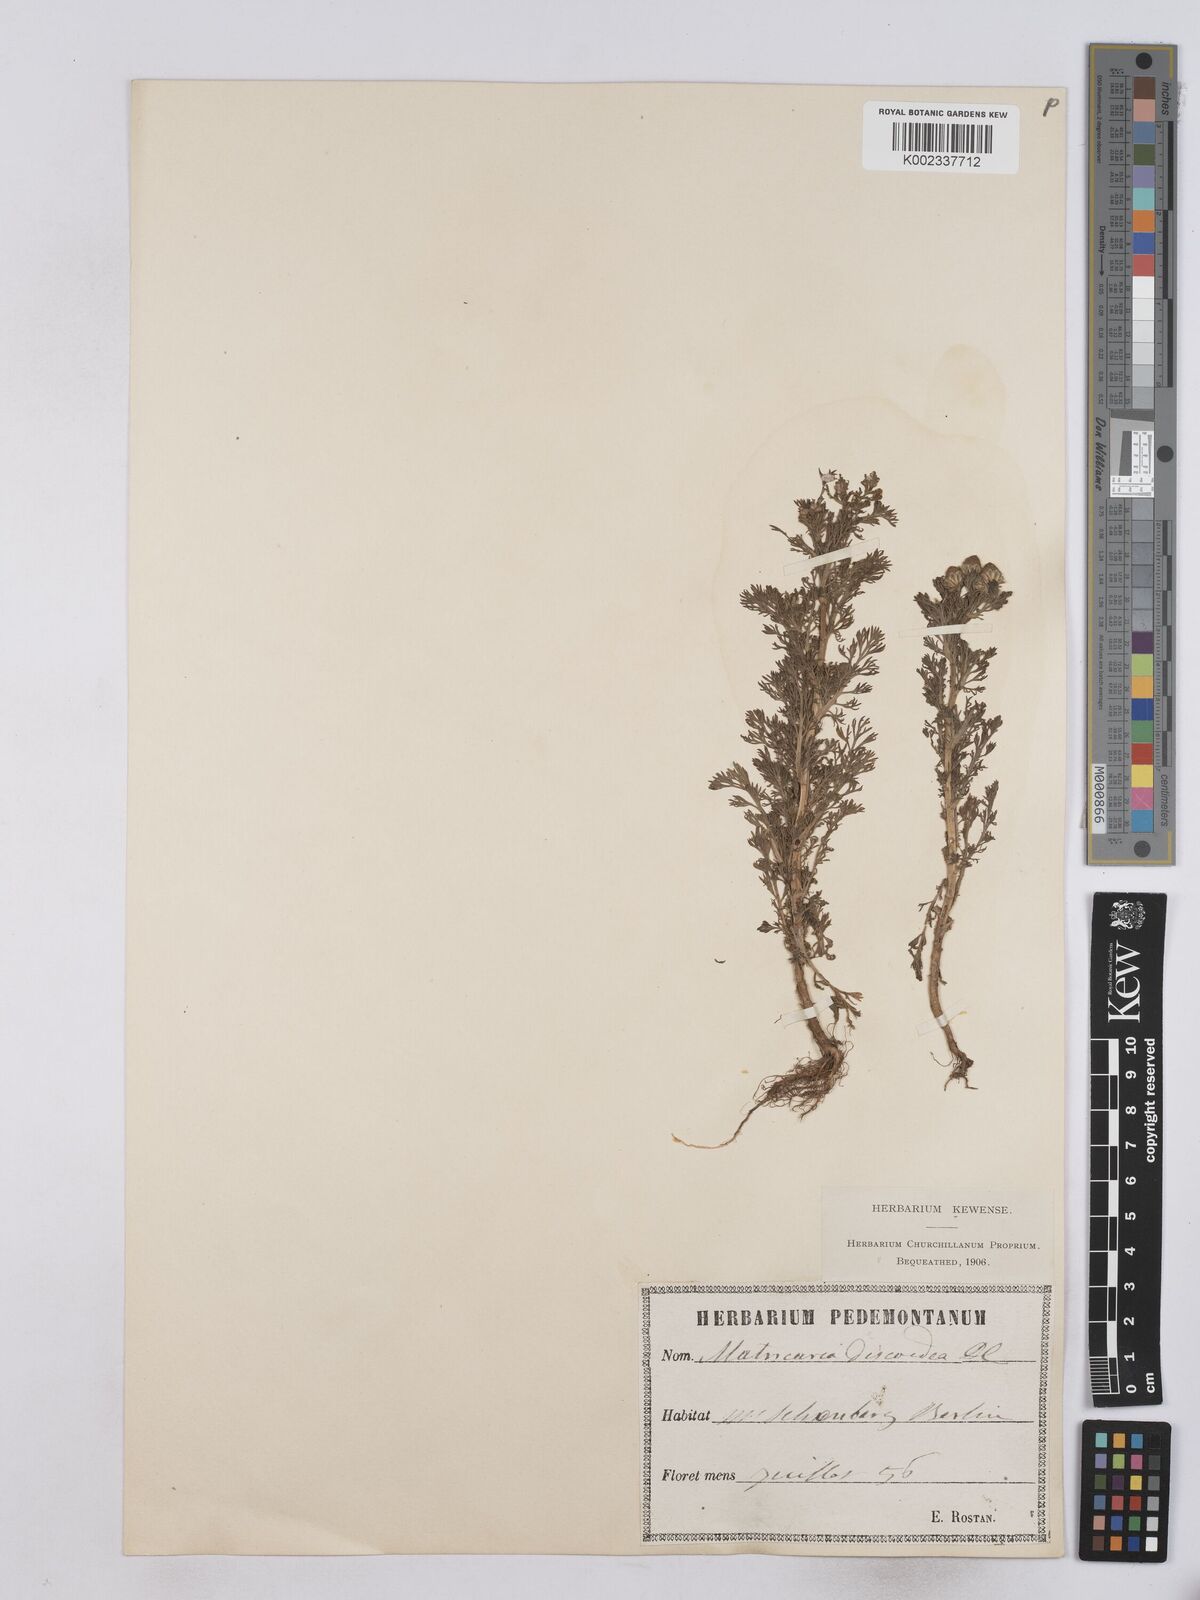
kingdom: Plantae
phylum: Tracheophyta
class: Magnoliopsida
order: Asterales
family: Asteraceae
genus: Matricaria
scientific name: Matricaria discoidea
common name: Disc mayweed
